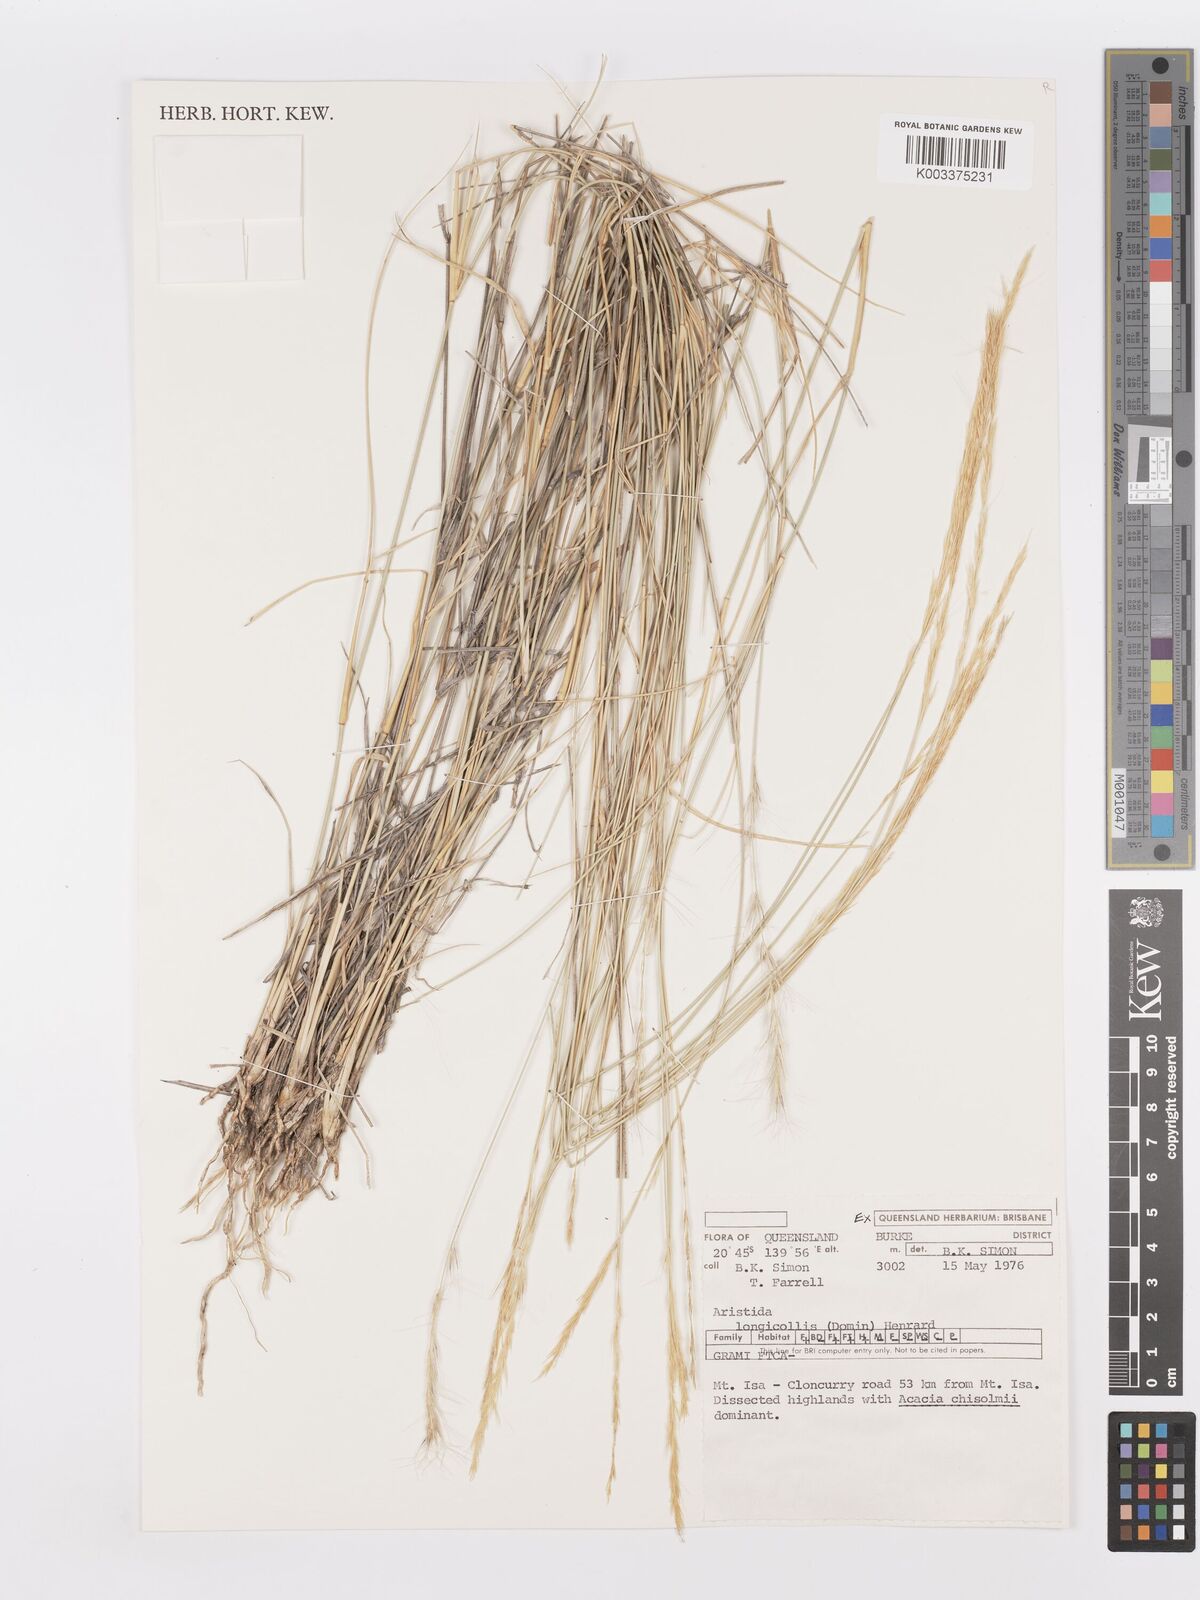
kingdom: Plantae
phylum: Tracheophyta
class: Liliopsida
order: Poales
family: Poaceae
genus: Aristida
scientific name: Aristida longicollis
